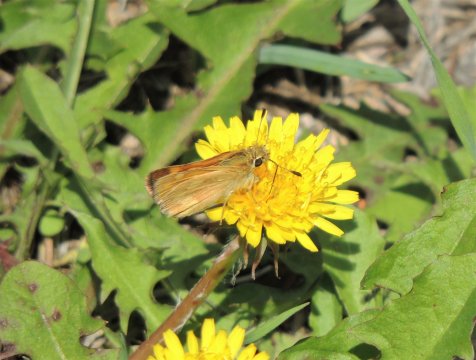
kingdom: Animalia
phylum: Arthropoda
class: Insecta
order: Lepidoptera
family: Hesperiidae
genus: Ochlodes
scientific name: Ochlodes sylvanoides
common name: Woodland Skipper
